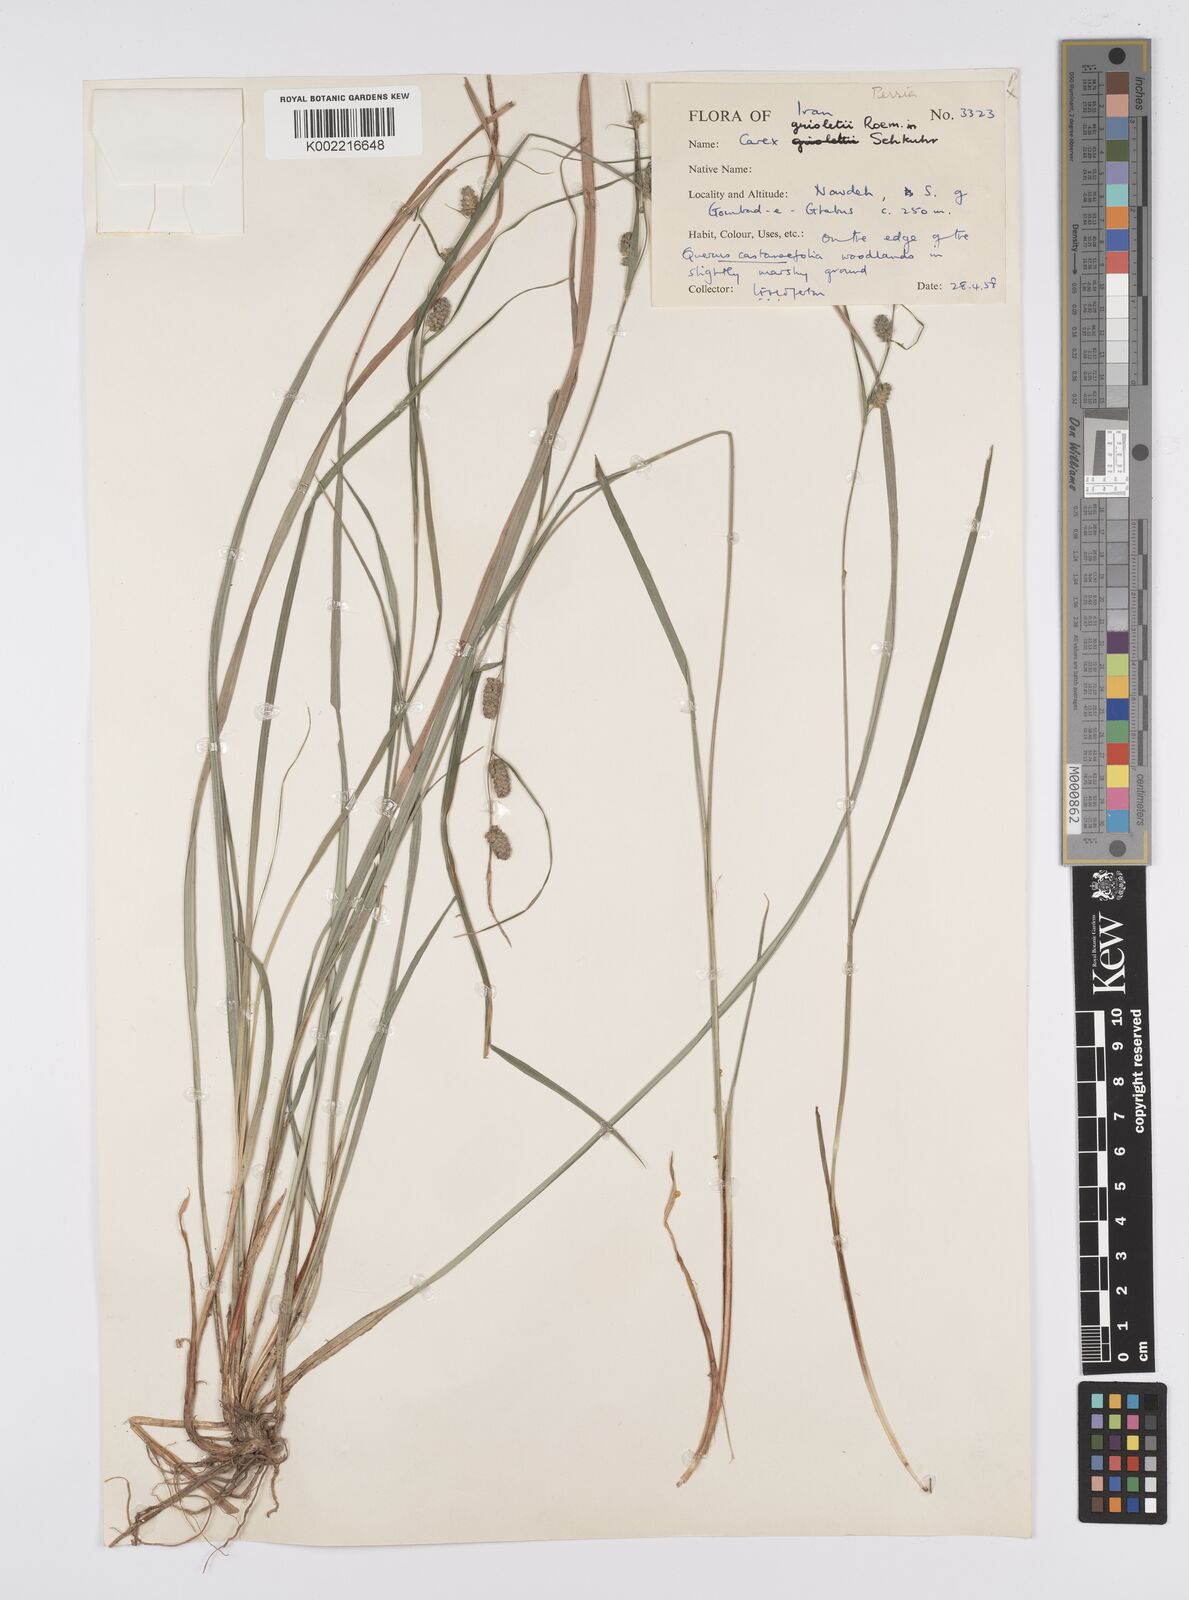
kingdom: Plantae
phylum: Tracheophyta
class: Liliopsida
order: Poales
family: Cyperaceae
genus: Carex
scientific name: Carex grioletii
